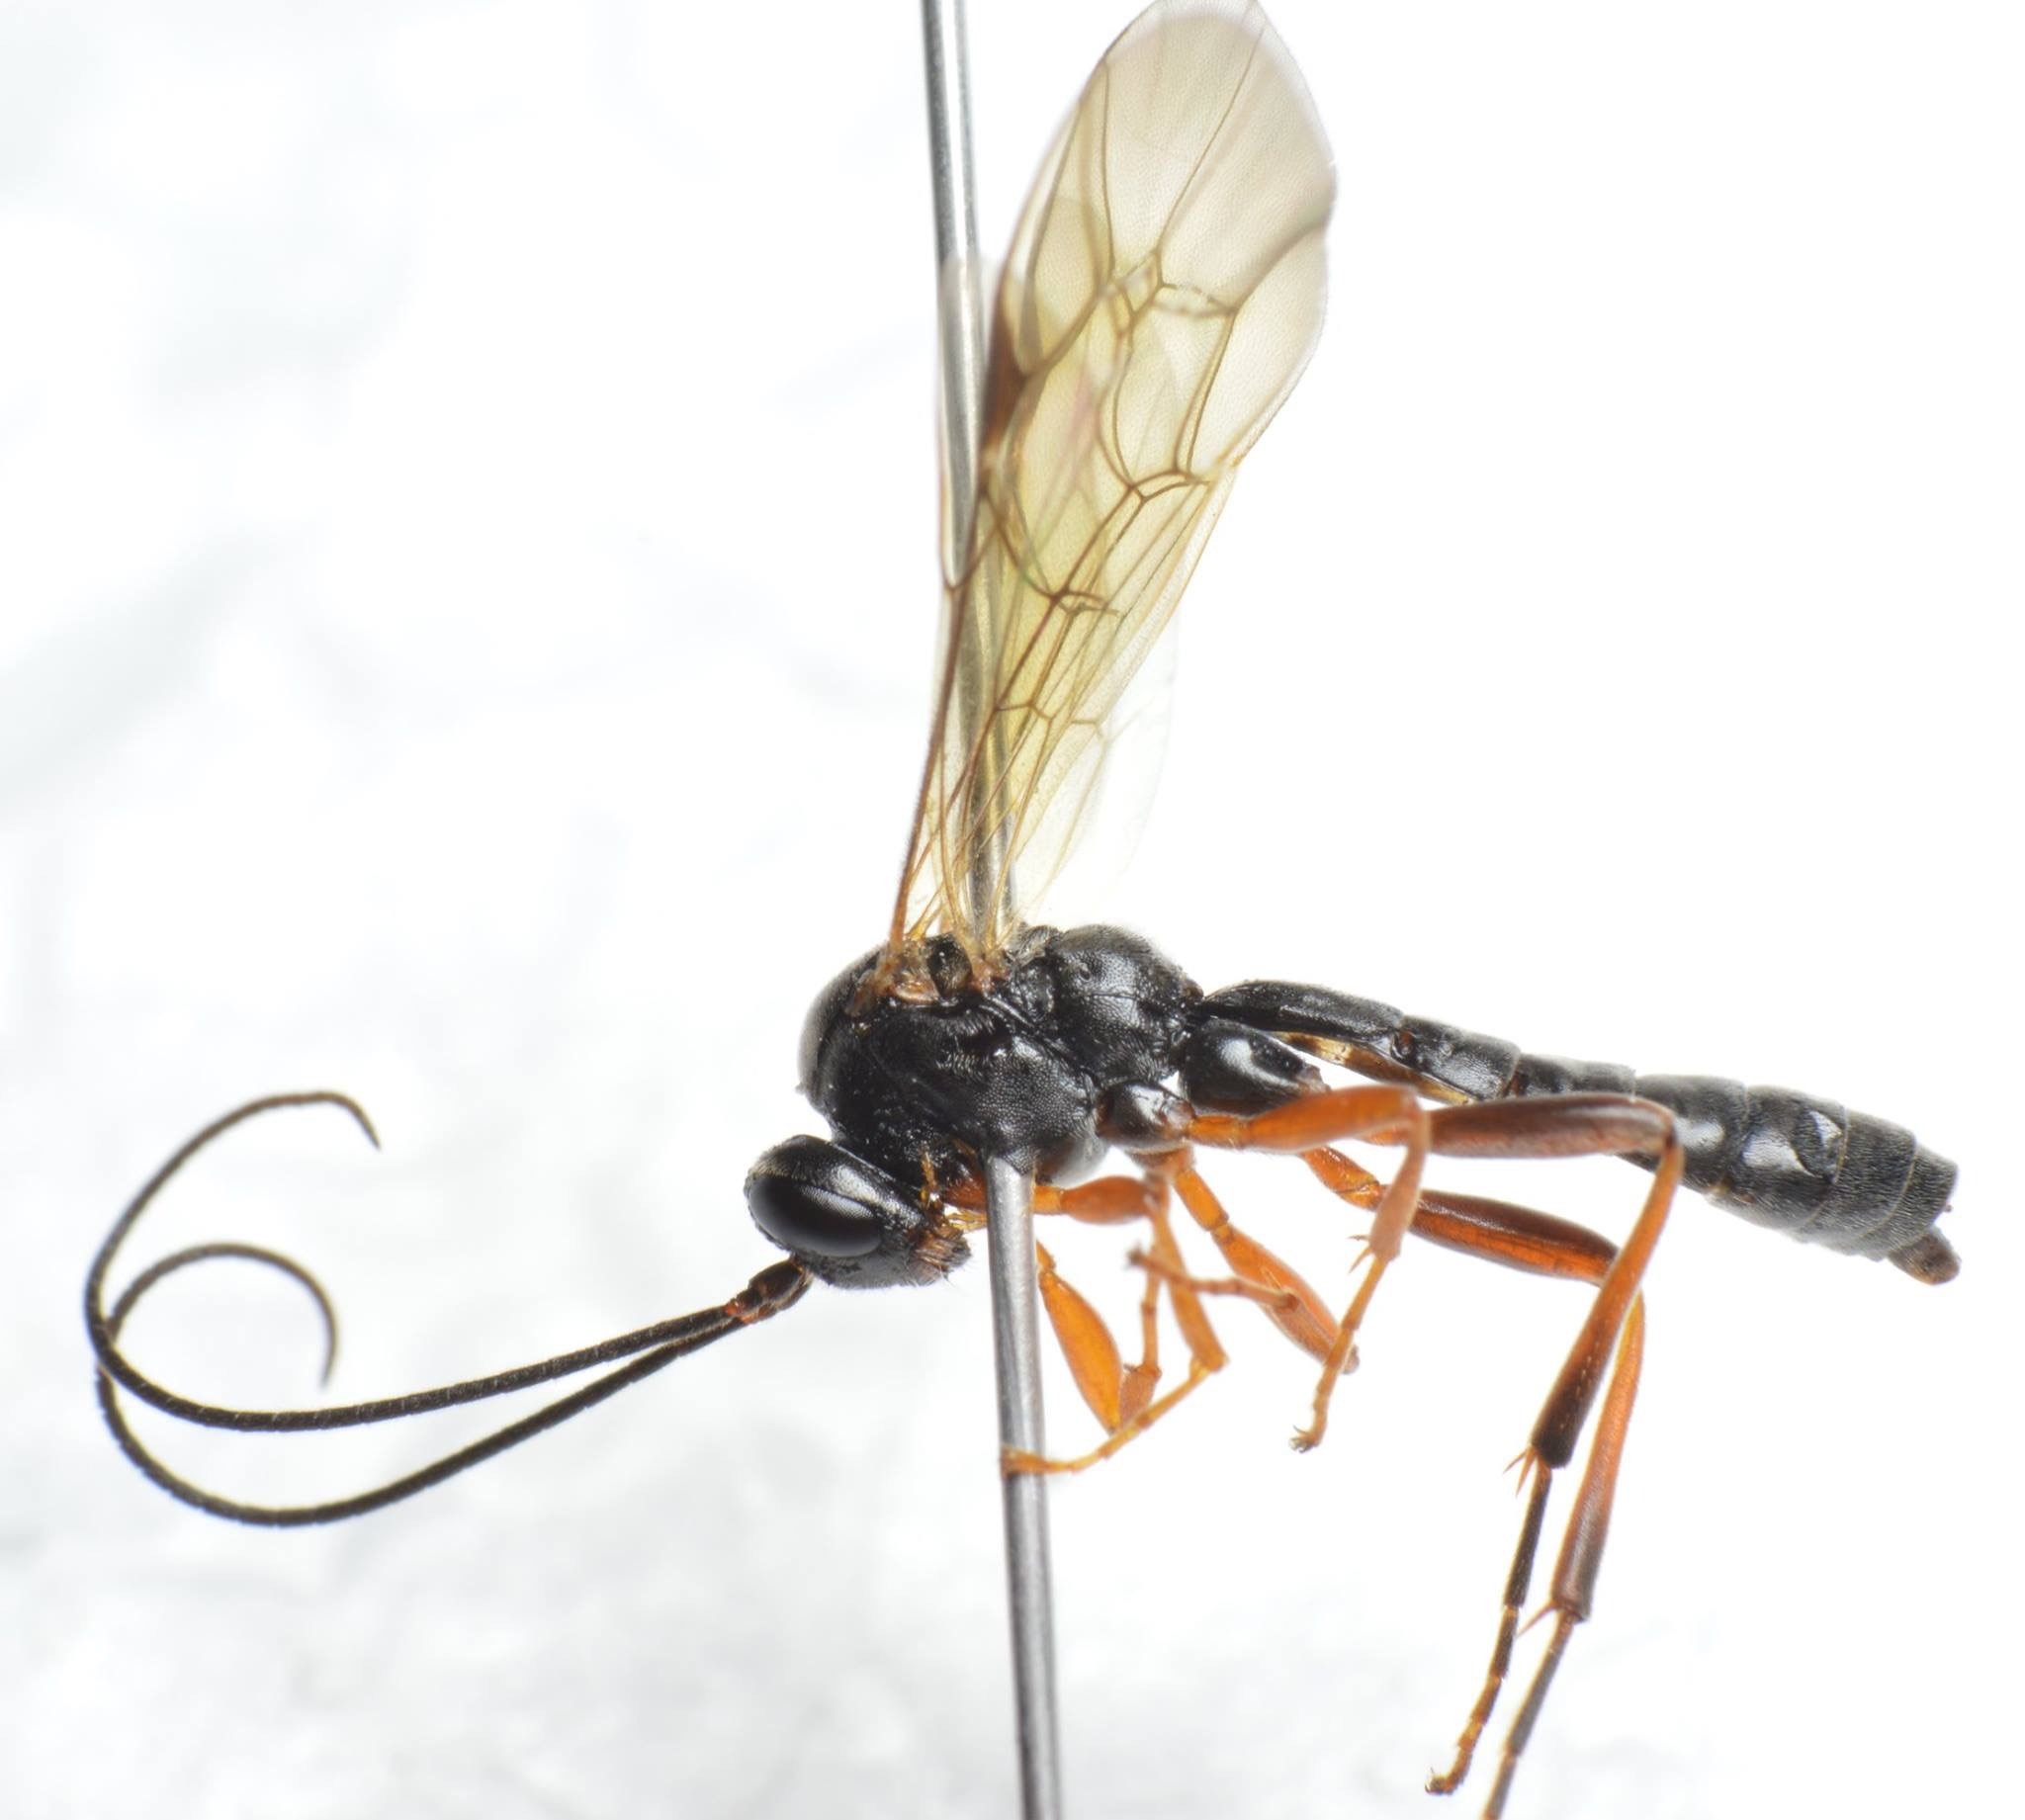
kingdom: Animalia
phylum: Arthropoda
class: Insecta
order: Hymenoptera
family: Ichneumonidae
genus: Dyspetes
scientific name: Dyspetes luteomarginatus
